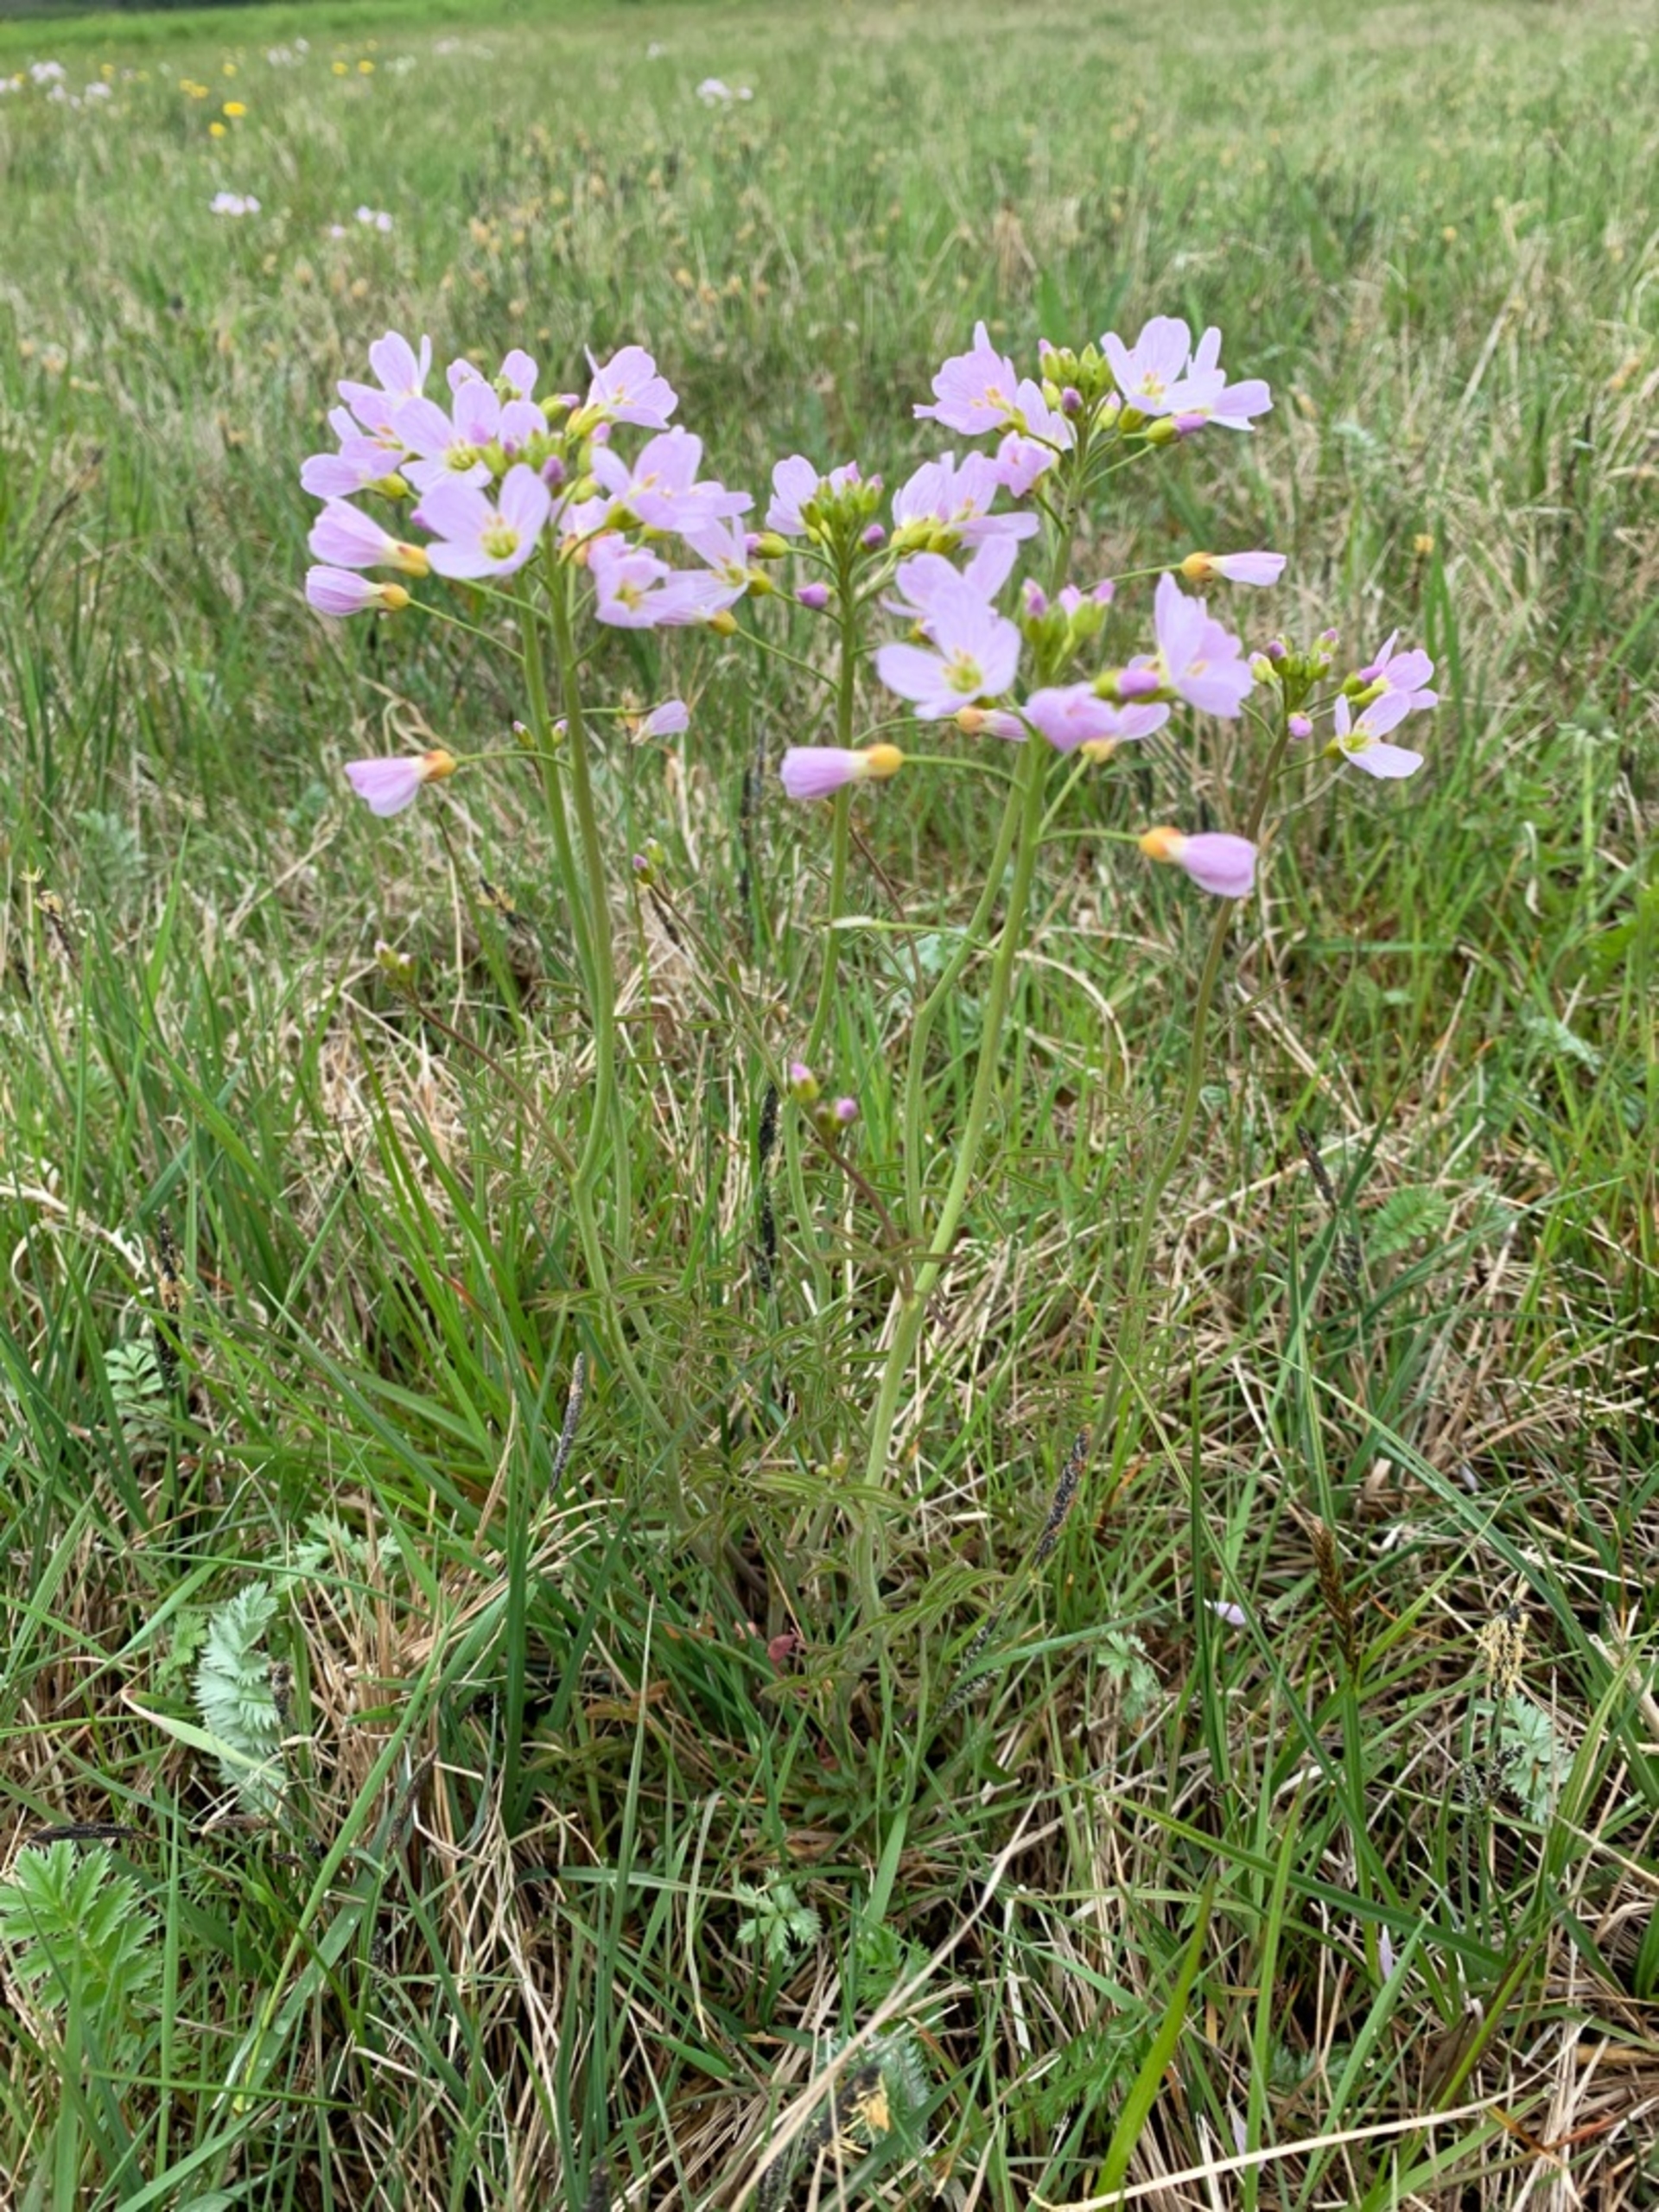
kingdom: Plantae
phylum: Tracheophyta
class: Magnoliopsida
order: Brassicales
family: Brassicaceae
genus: Cardamine
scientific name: Cardamine pratensis
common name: Engkarse
